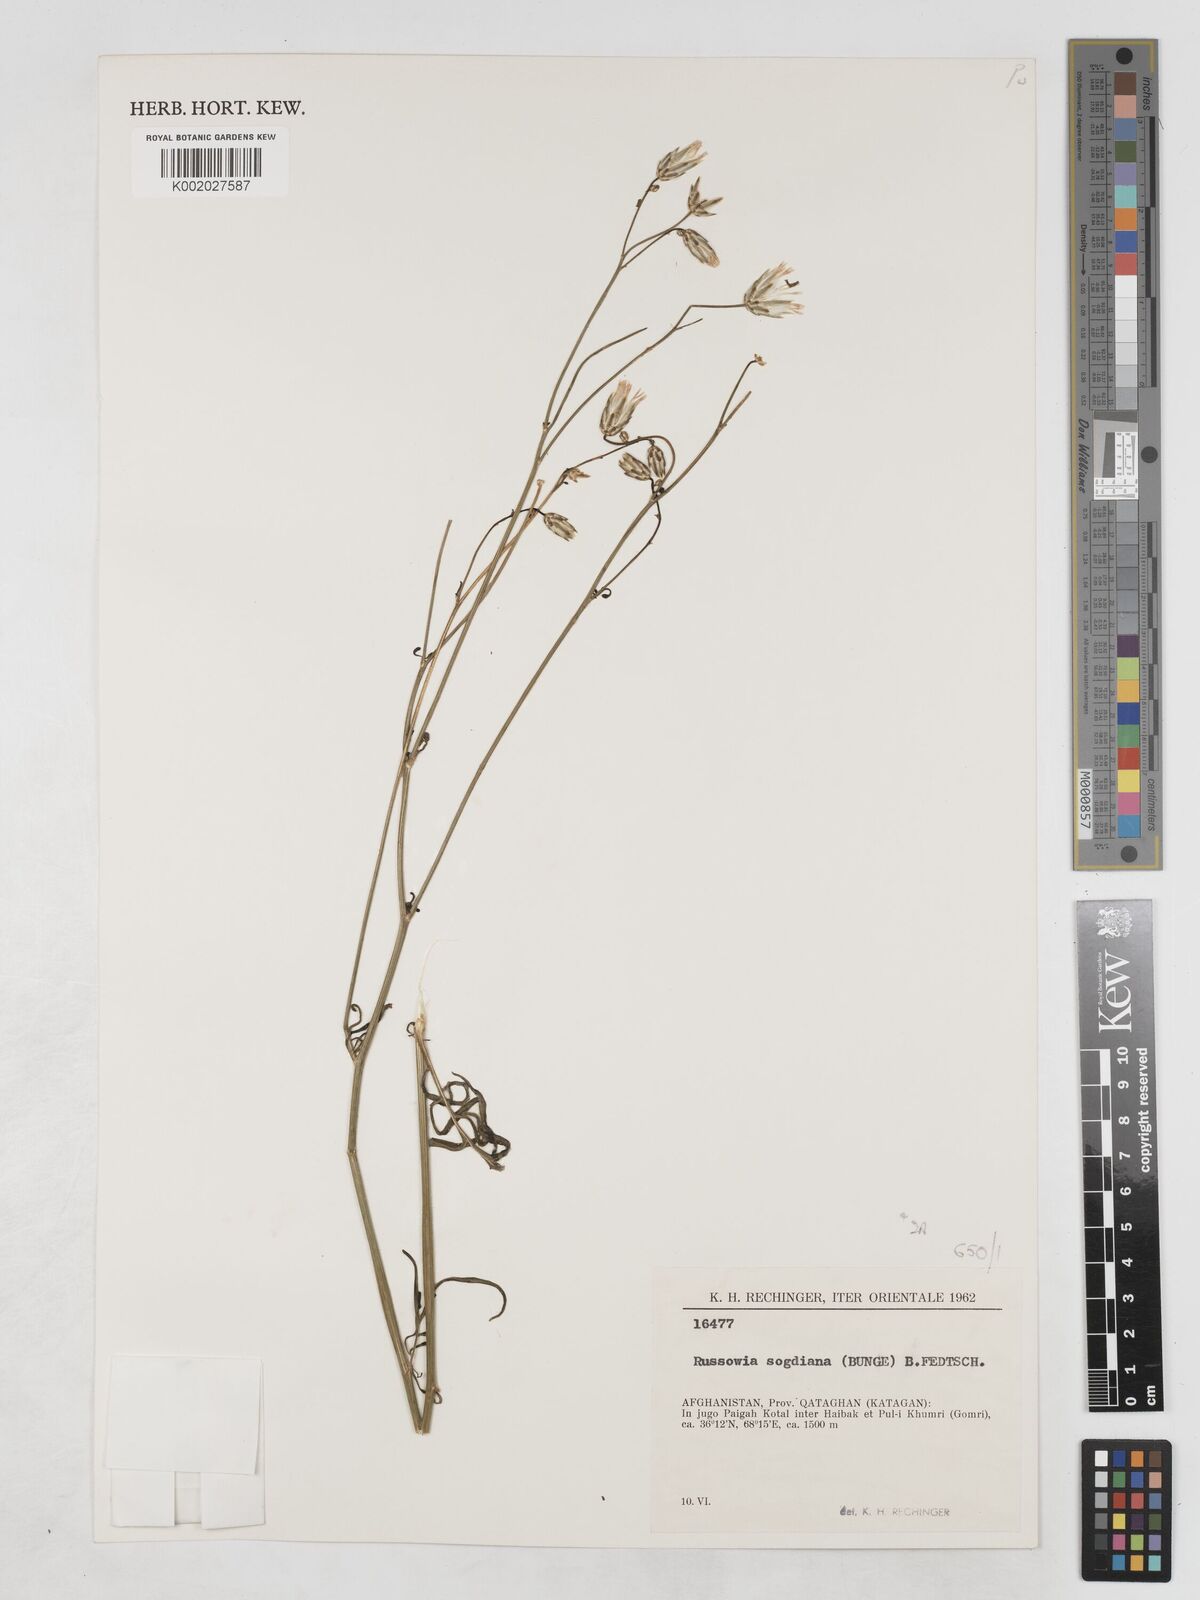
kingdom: Plantae
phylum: Tracheophyta
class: Magnoliopsida
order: Asterales
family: Asteraceae
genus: Russowia
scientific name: Russowia sogdiana
